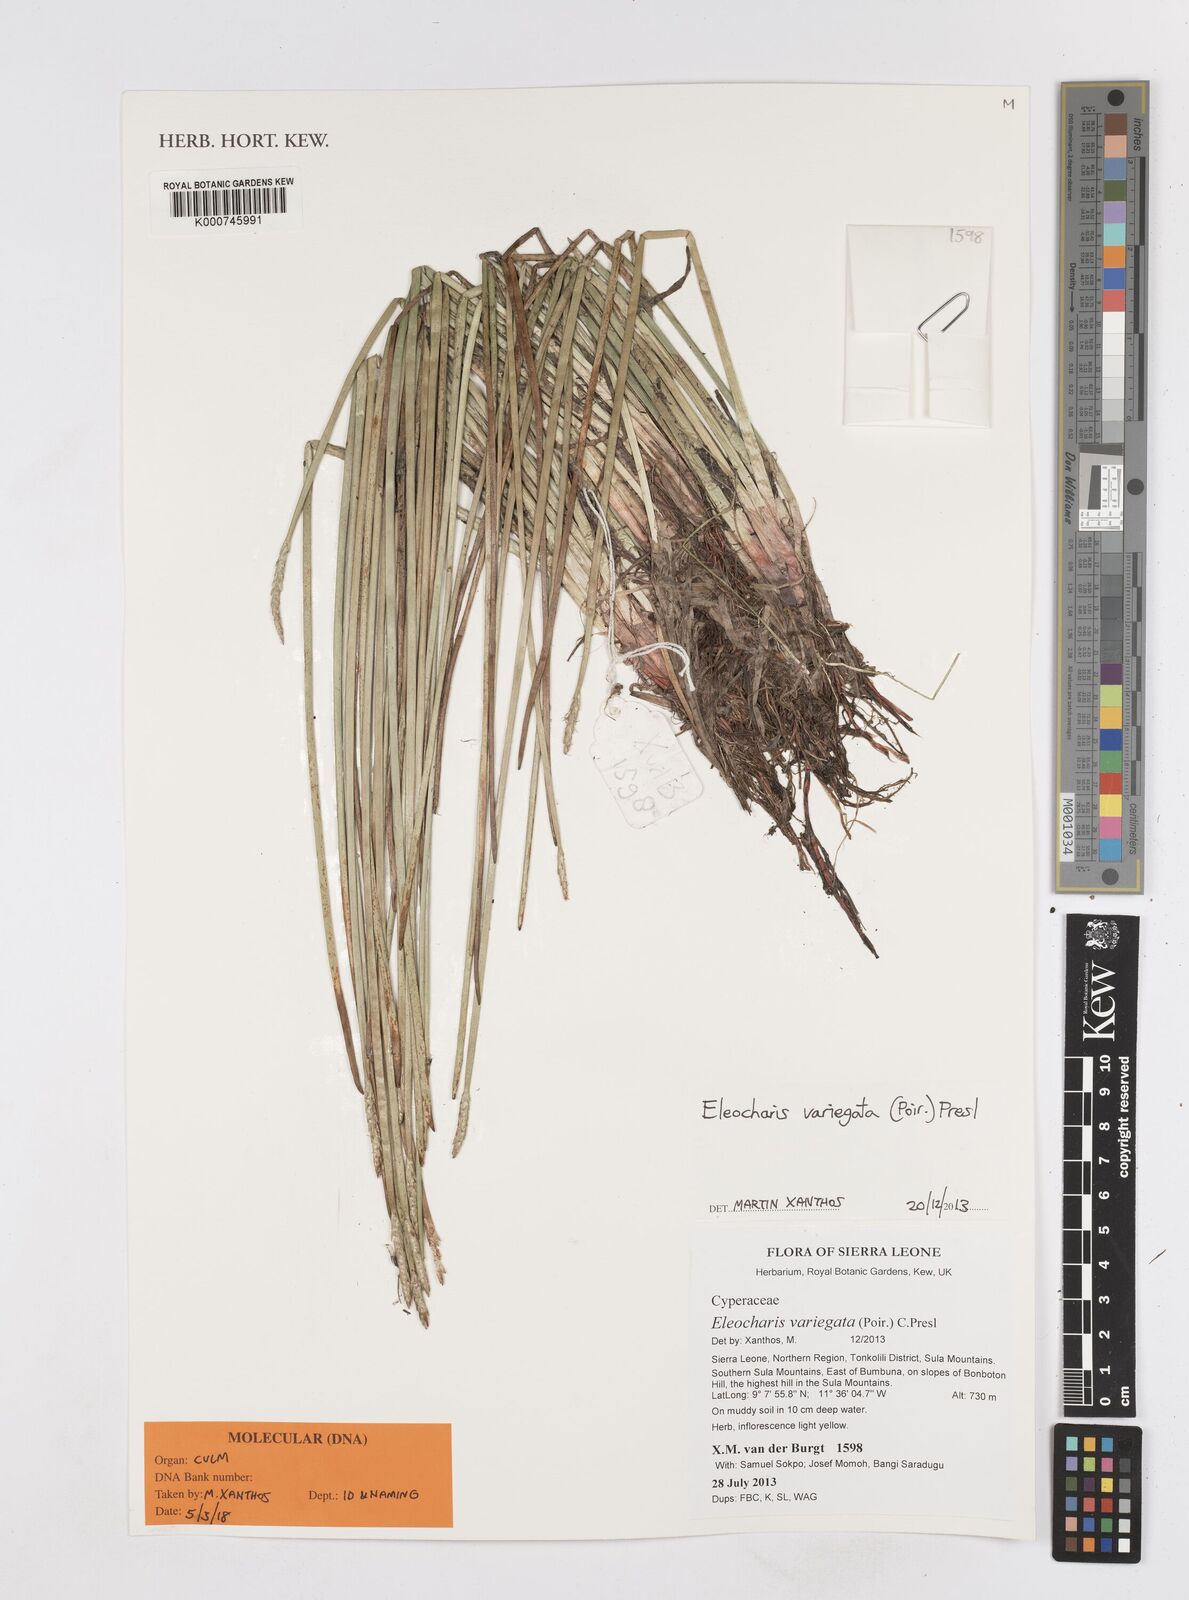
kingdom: Plantae
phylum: Tracheophyta
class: Liliopsida
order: Poales
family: Cyperaceae
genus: Eleocharis
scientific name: Eleocharis variegata
